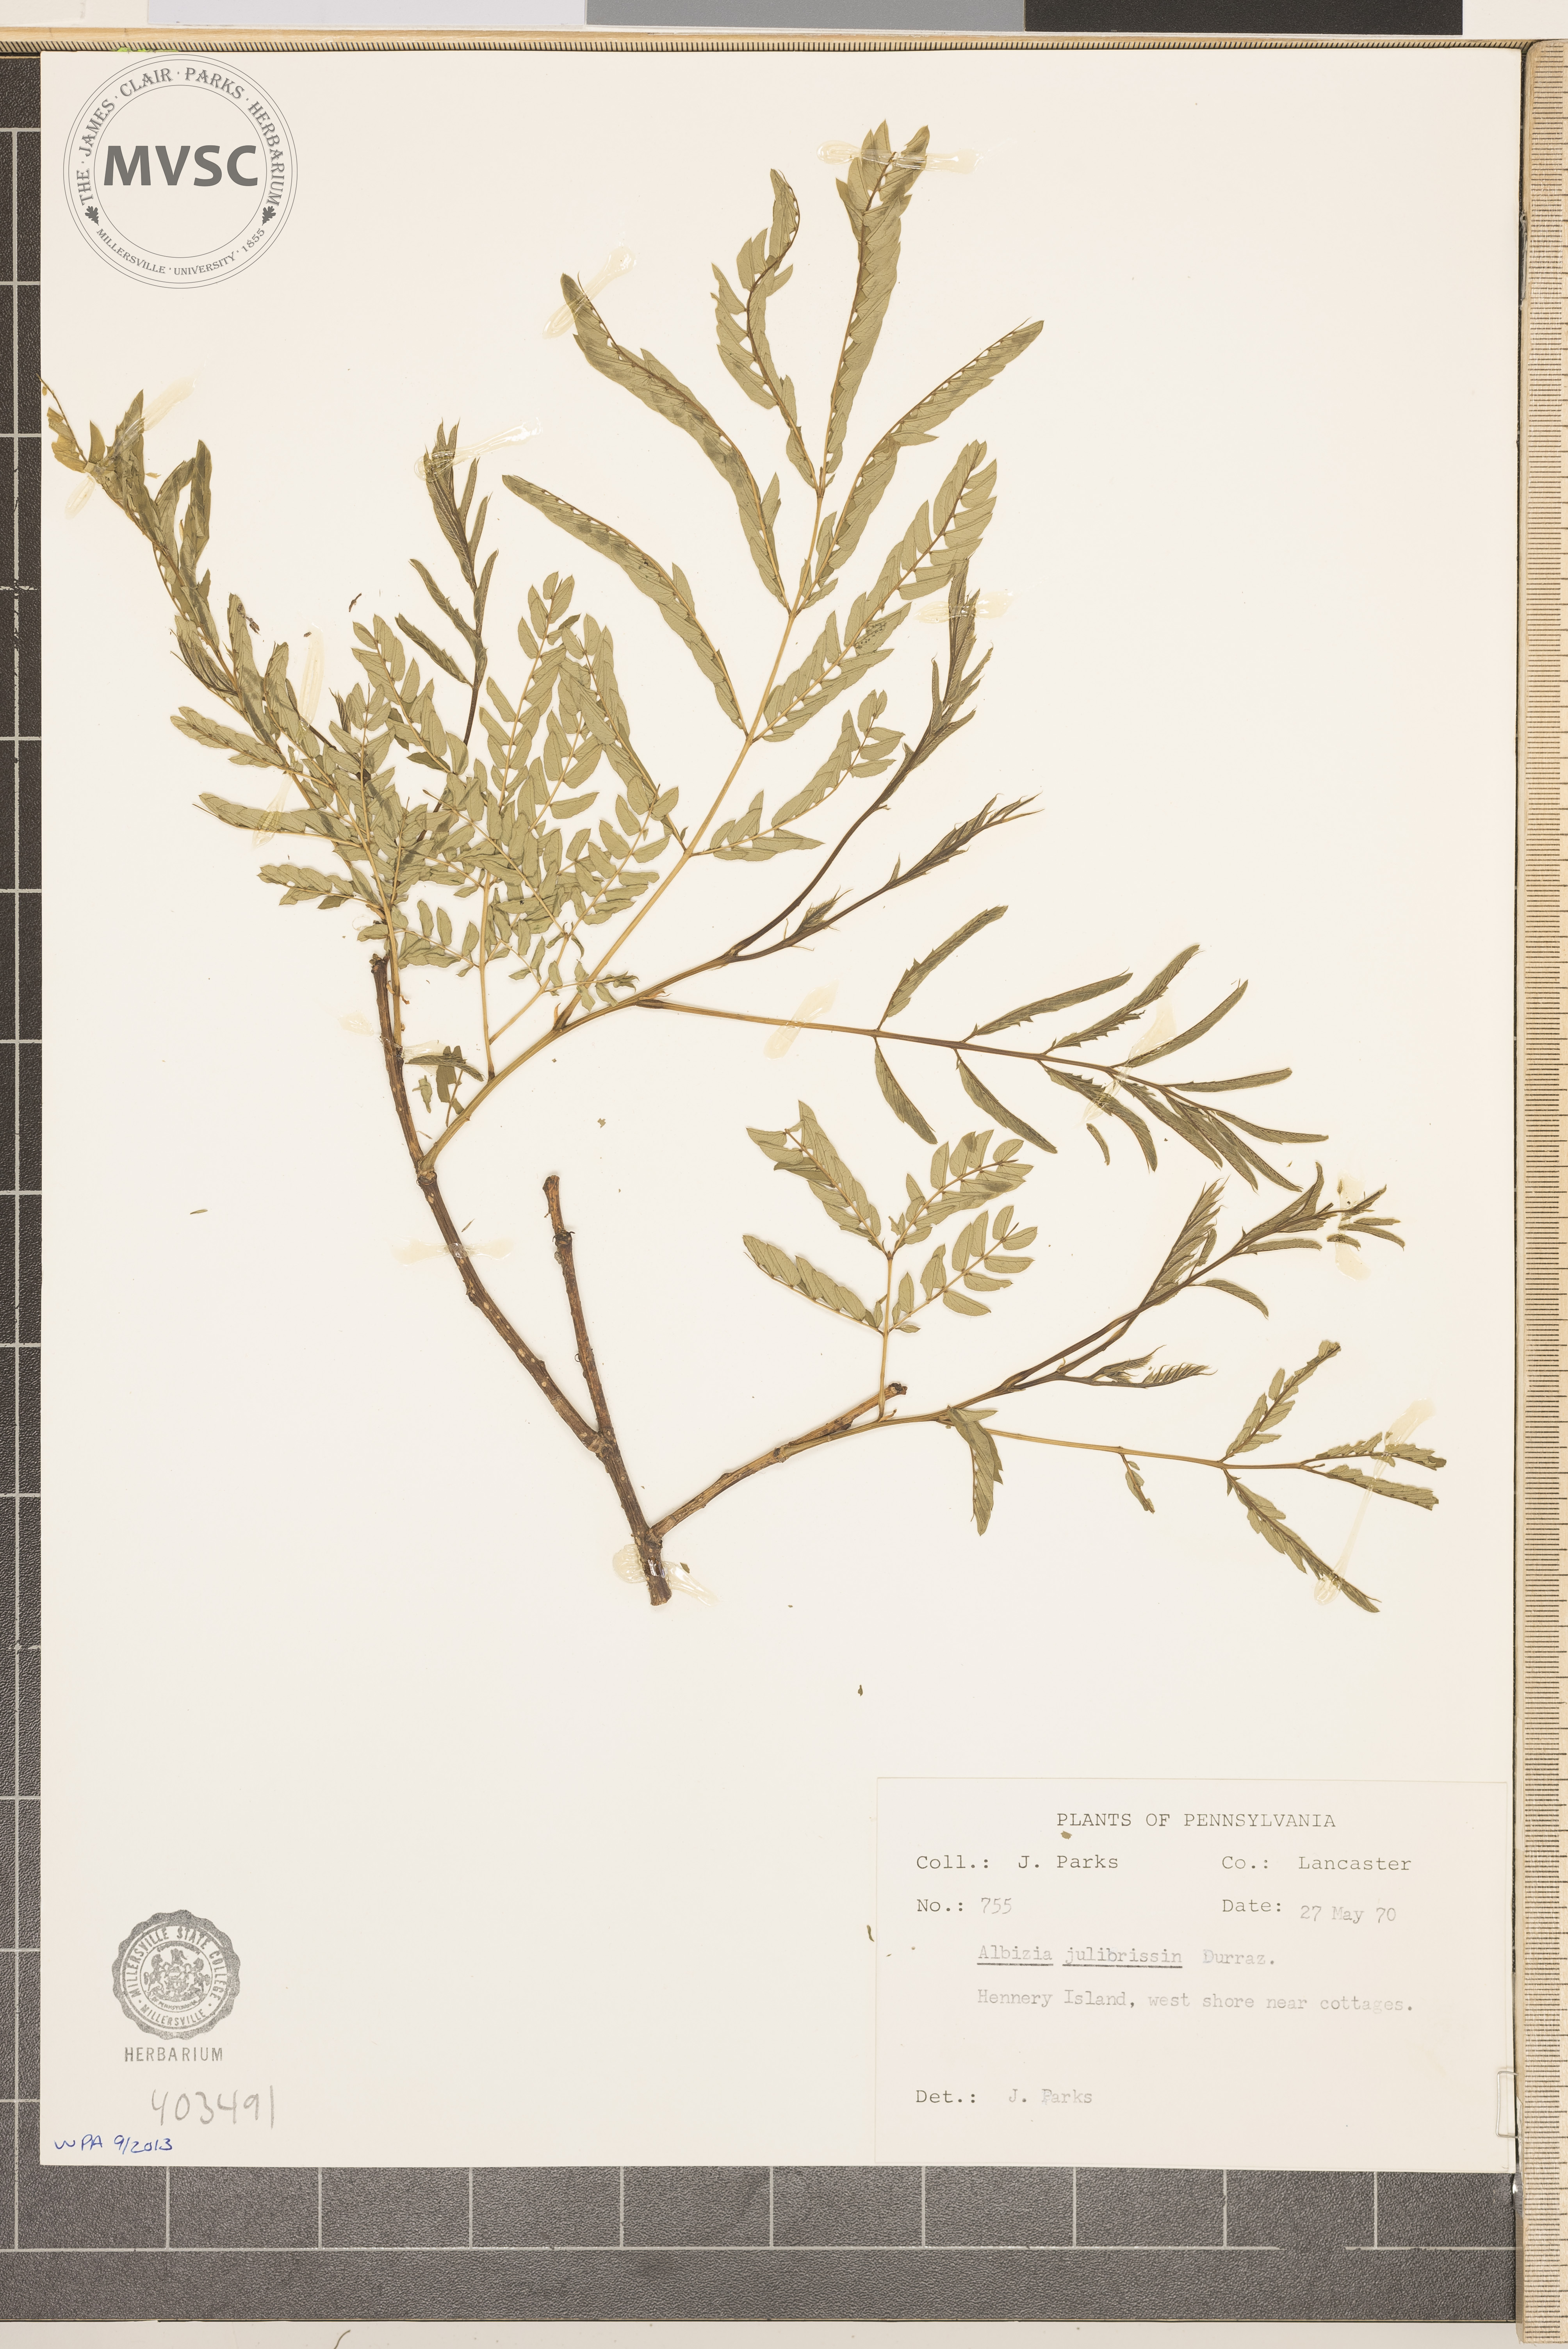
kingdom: Plantae
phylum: Tracheophyta
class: Magnoliopsida
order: Fabales
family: Fabaceae
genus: Albizia
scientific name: Albizia julibrissin
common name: mimosa
